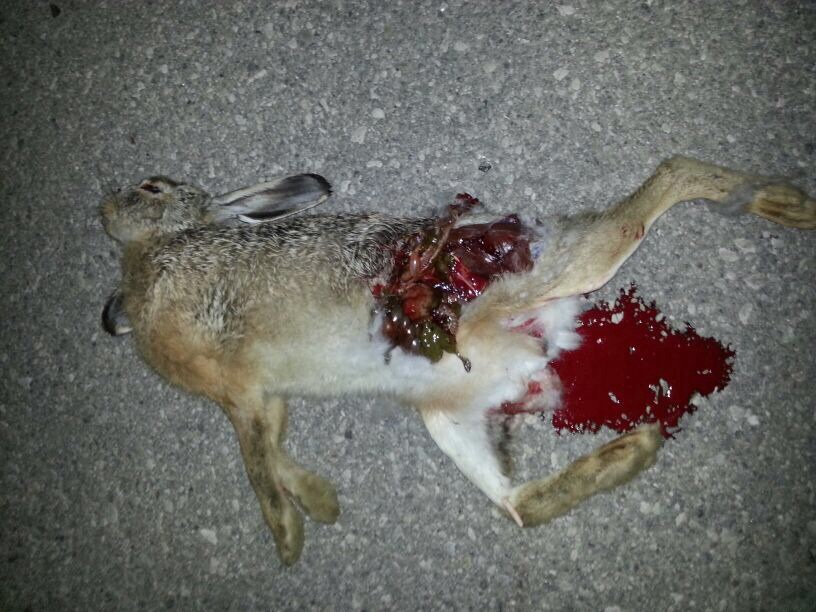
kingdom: Animalia
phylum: Chordata
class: Mammalia
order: Lagomorpha
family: Leporidae
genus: Lepus
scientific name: Lepus europaeus
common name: European hare
